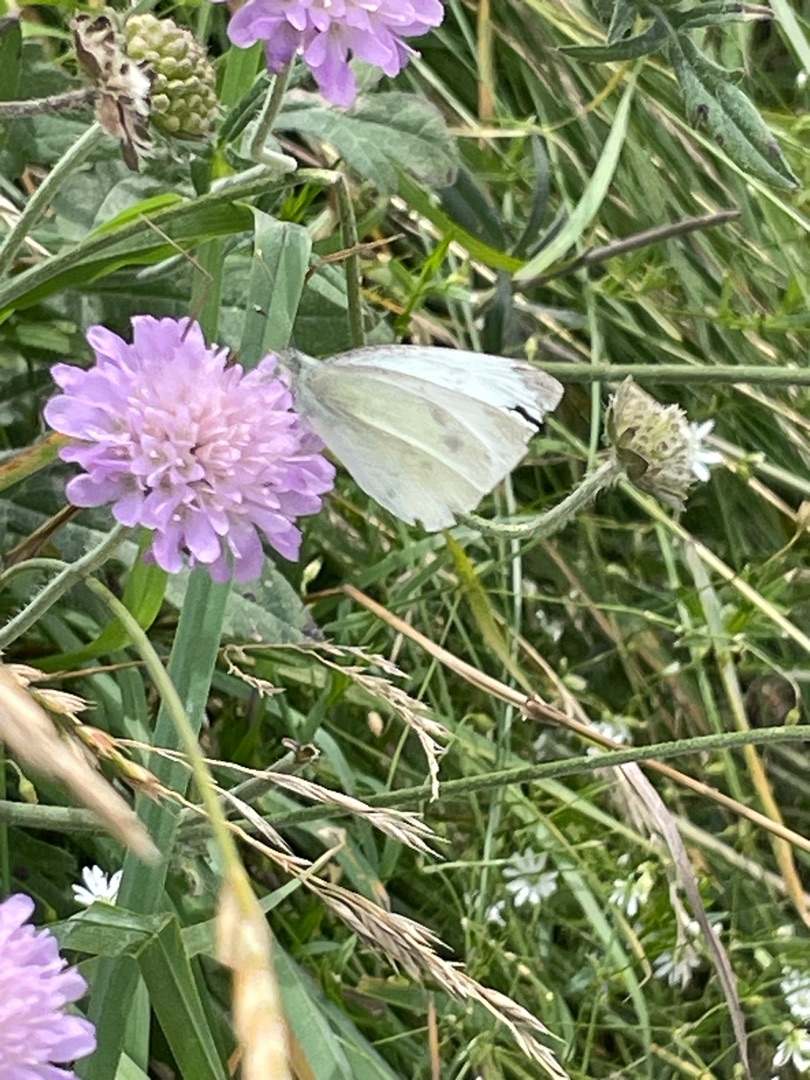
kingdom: Animalia
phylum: Arthropoda
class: Insecta
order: Lepidoptera
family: Pieridae
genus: Pieris
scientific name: Pieris rapae
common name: Lille kålsommerfugl
